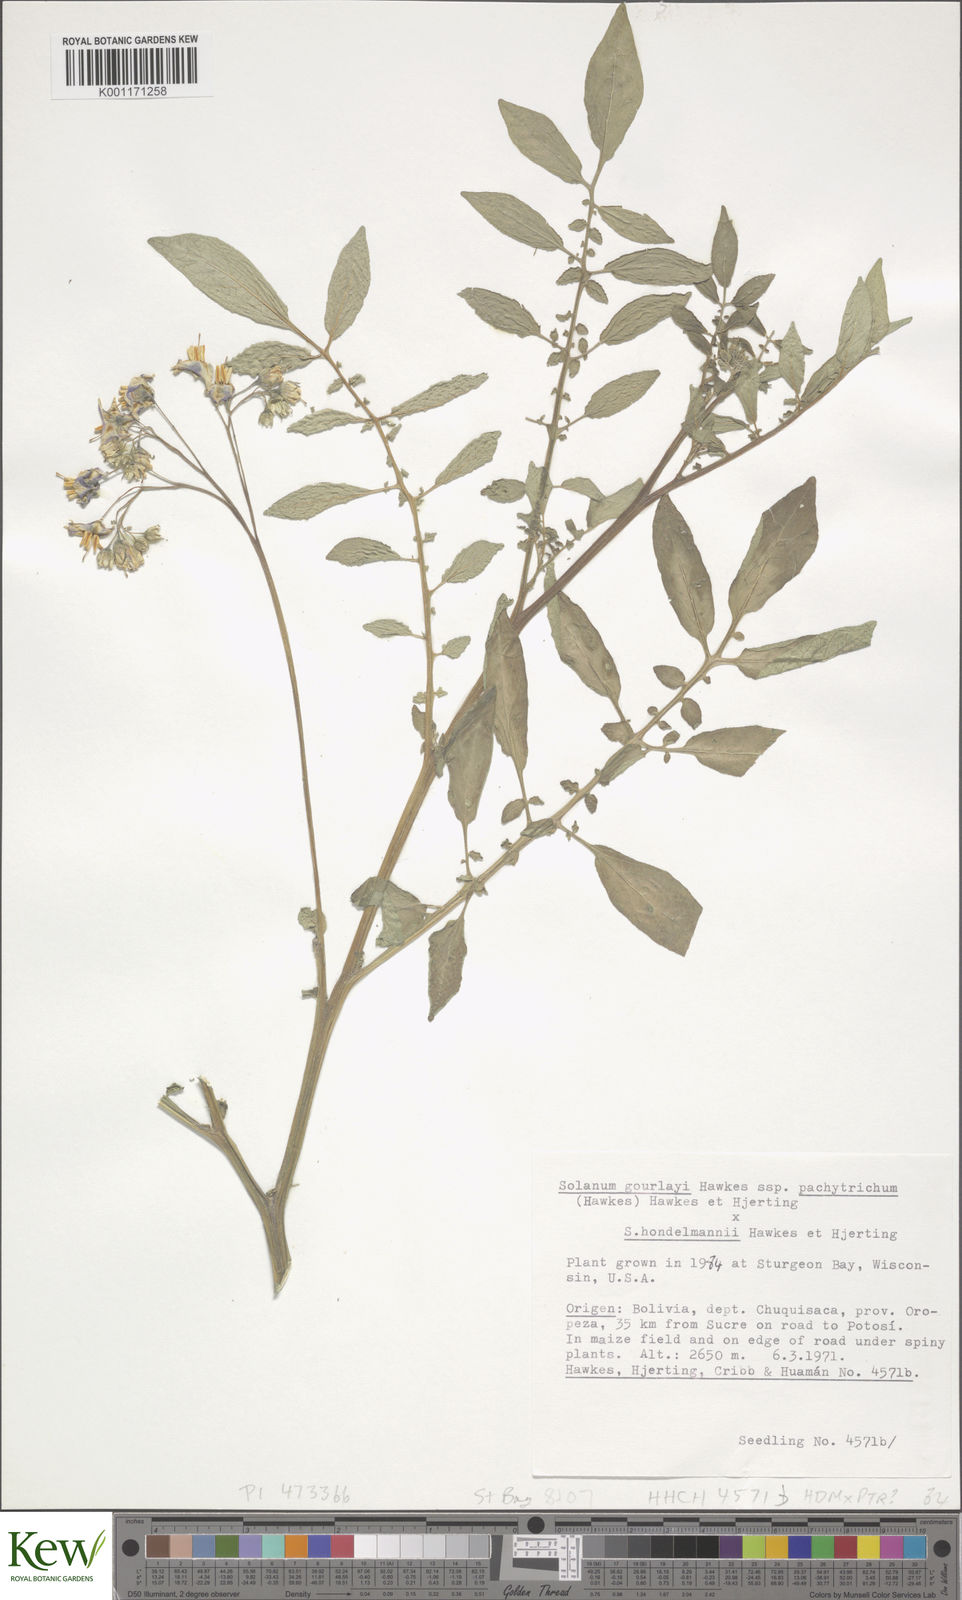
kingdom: Plantae
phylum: Tracheophyta
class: Magnoliopsida
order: Solanales
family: Solanaceae
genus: Solanum
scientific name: Solanum brevicaule
